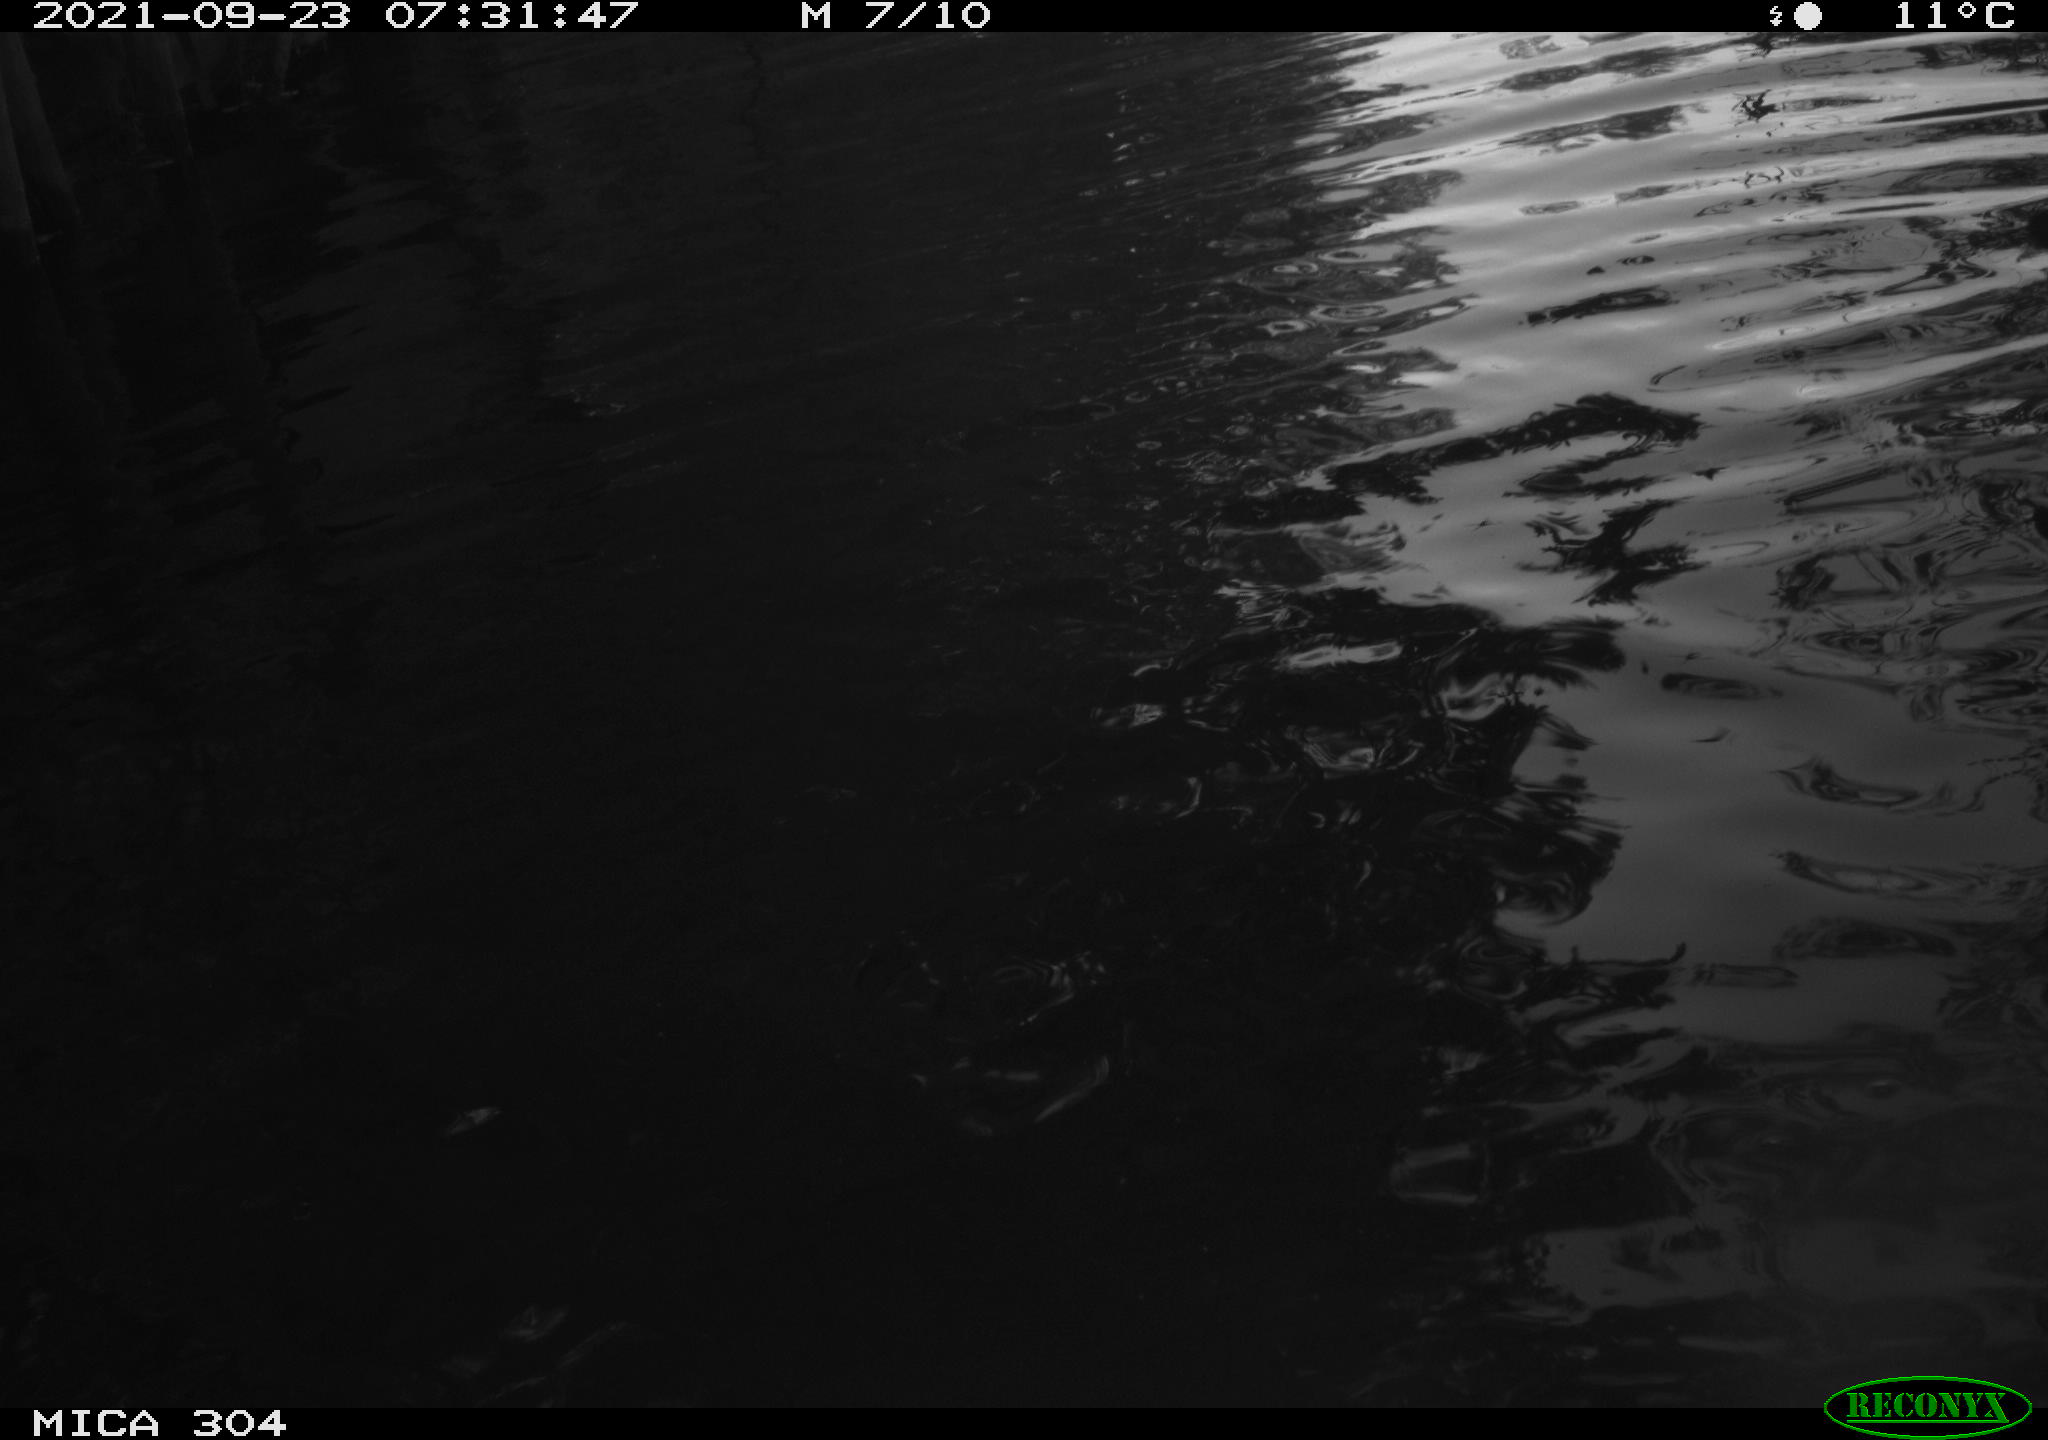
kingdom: Animalia
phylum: Chordata
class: Aves
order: Pelecaniformes
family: Ardeidae
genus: Ardea
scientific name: Ardea
